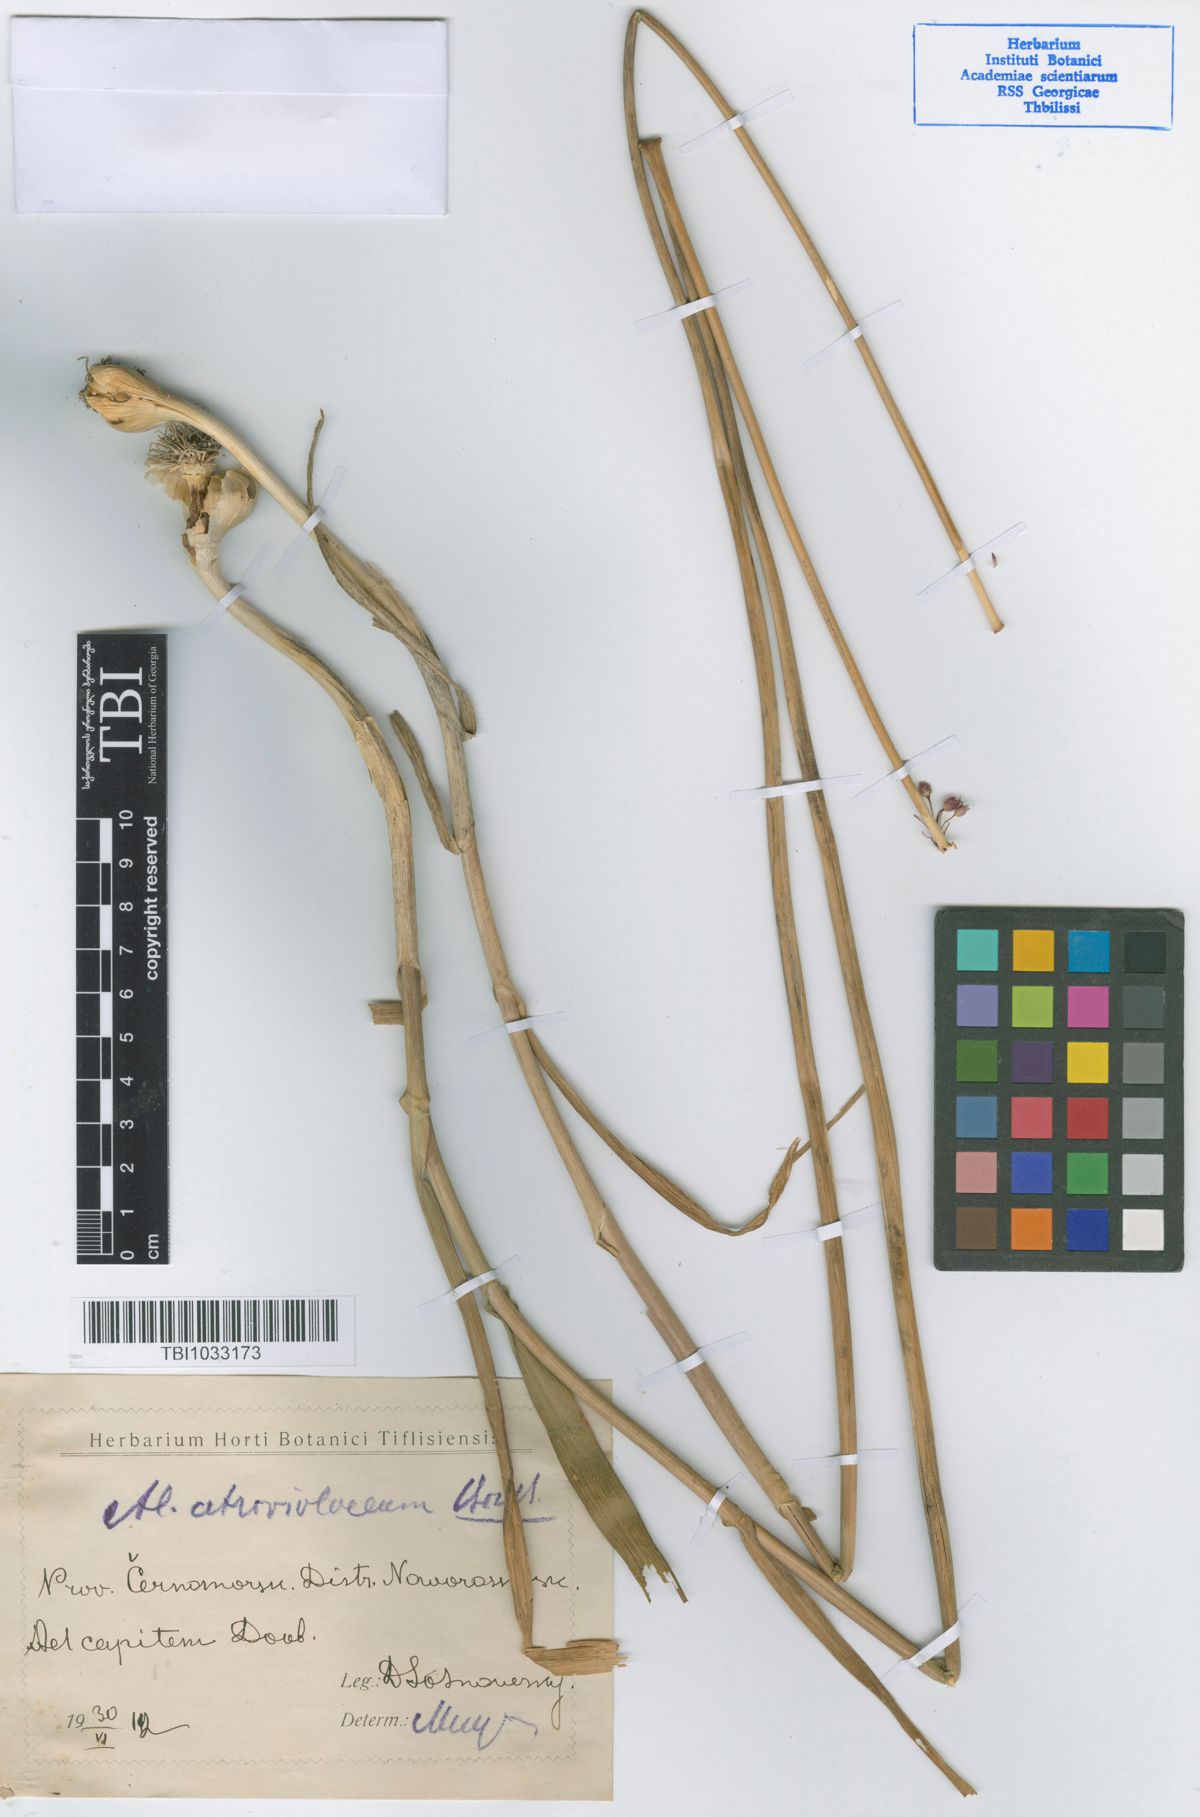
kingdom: Plantae
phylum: Tracheophyta
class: Liliopsida
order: Asparagales
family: Amaryllidaceae
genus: Allium
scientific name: Allium atroviolaceum
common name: Broadleaf wild leek
